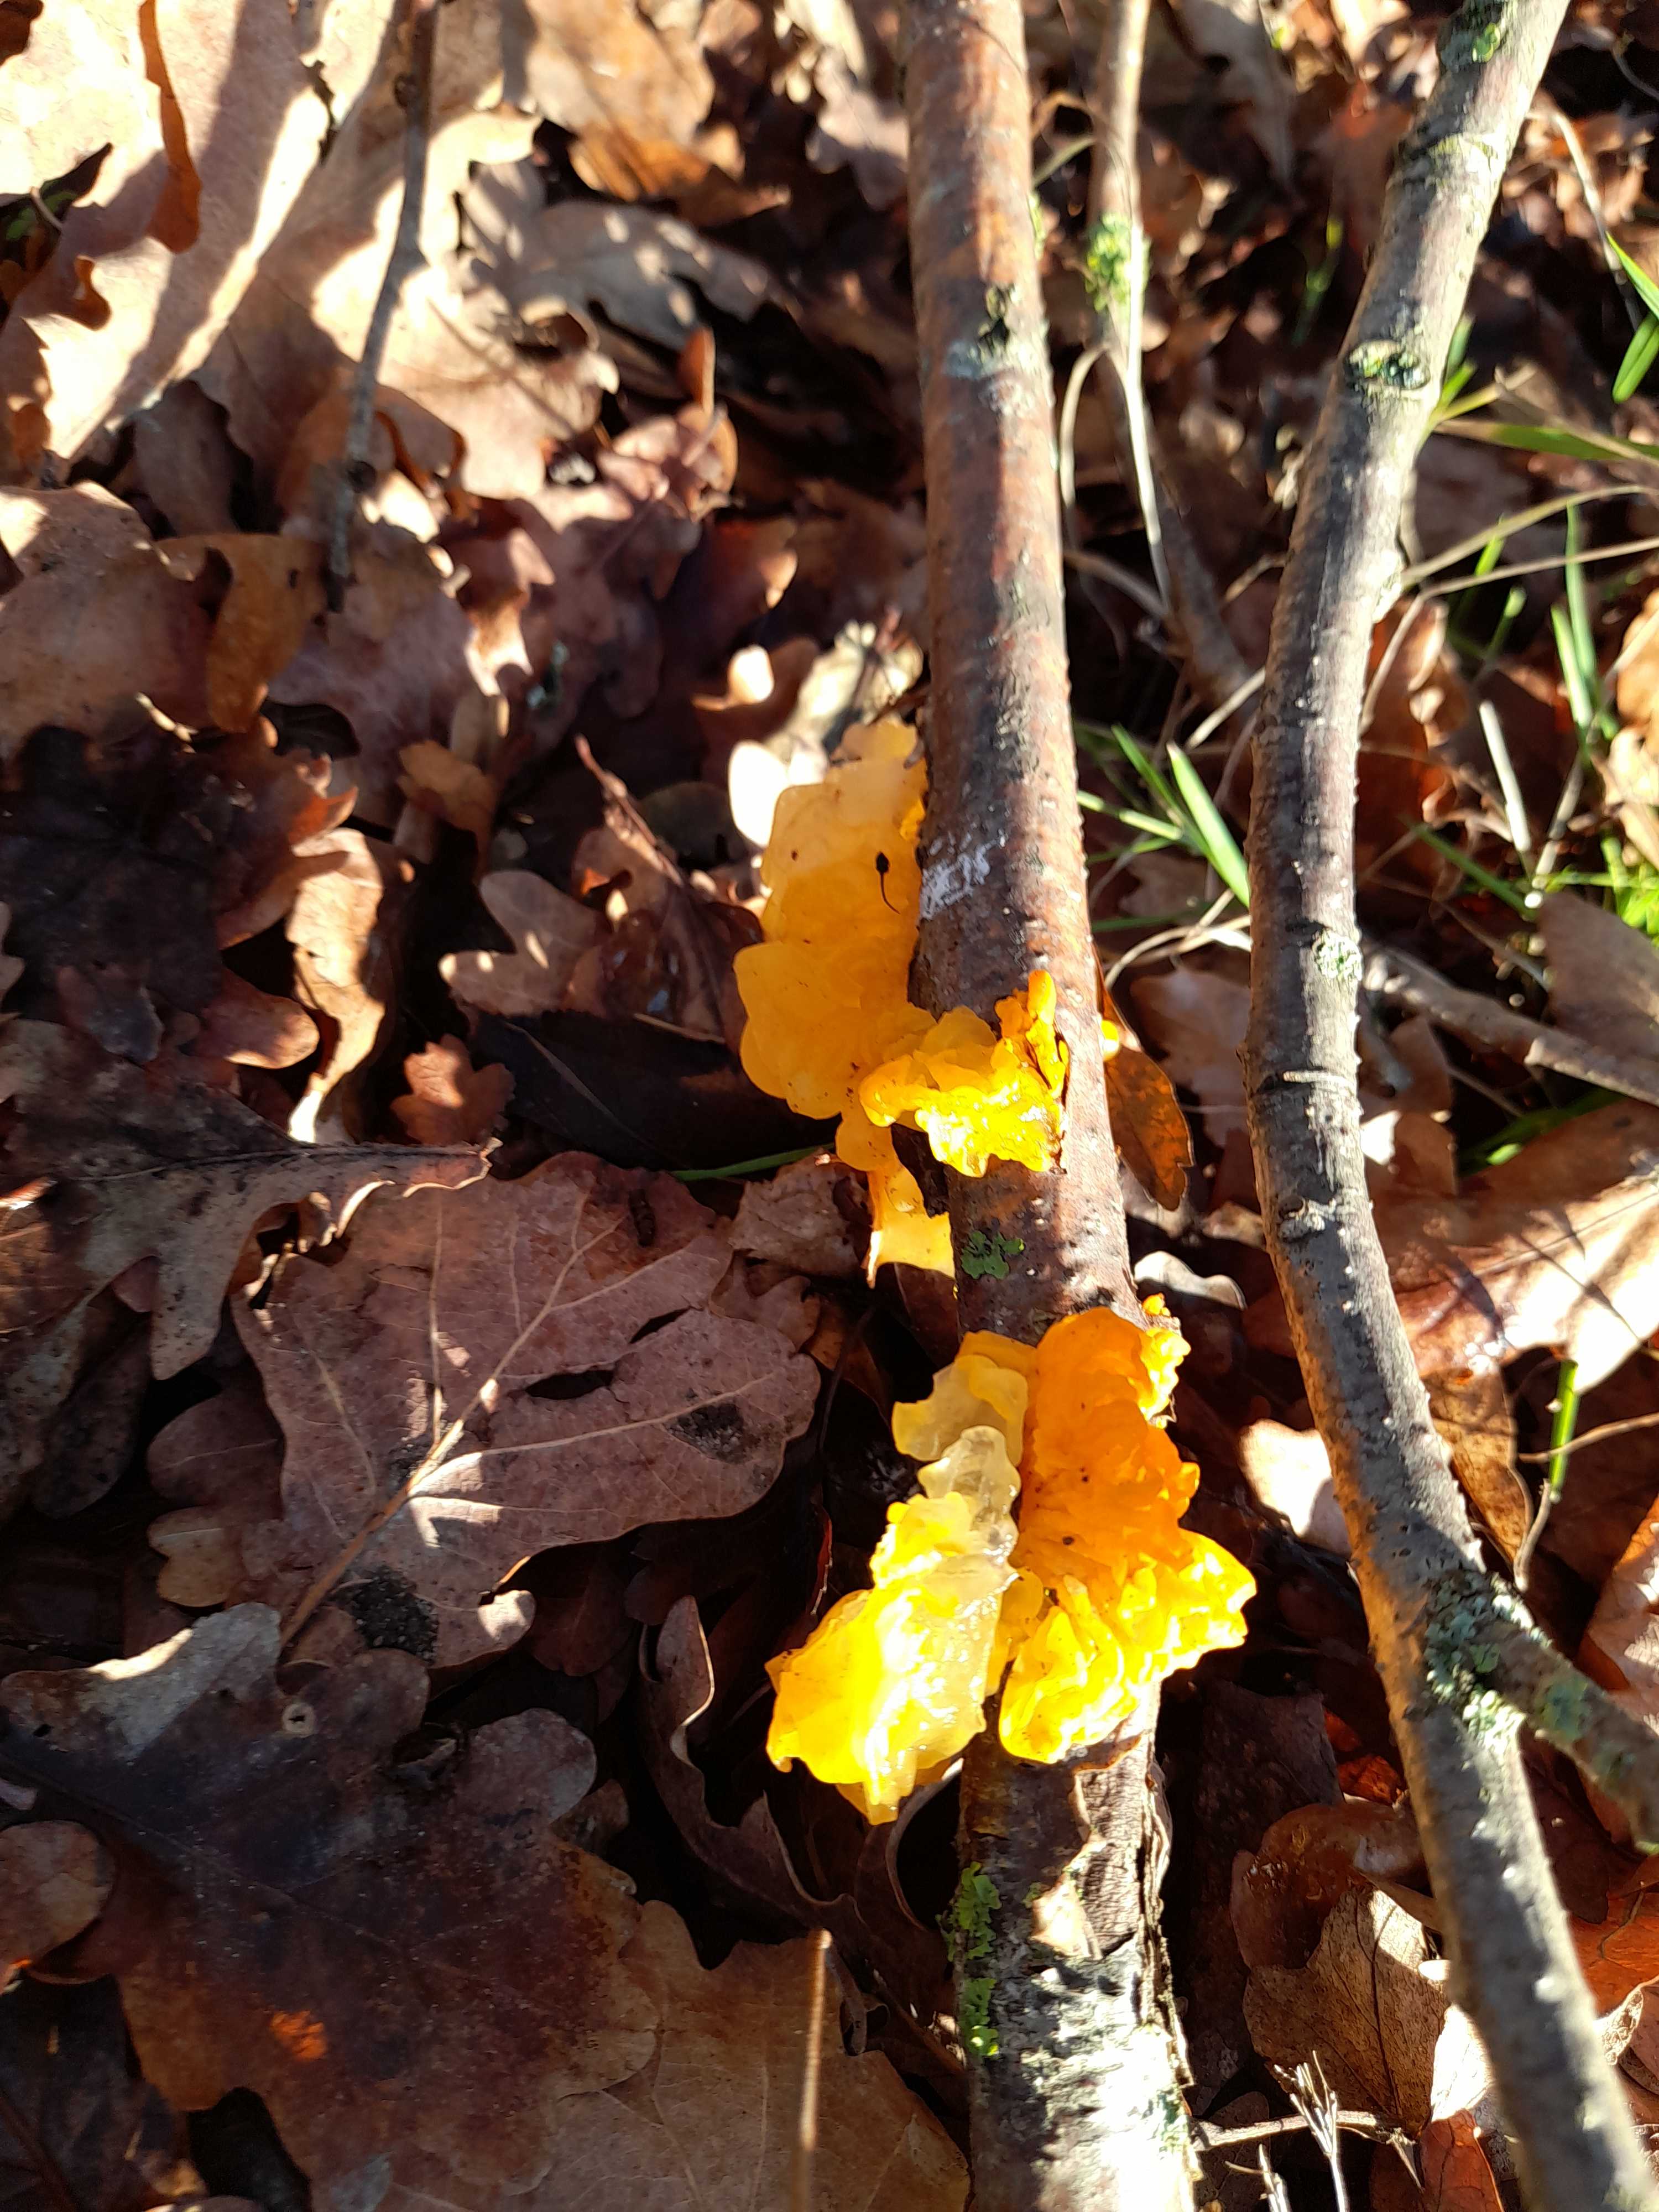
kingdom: Fungi
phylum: Basidiomycota
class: Tremellomycetes
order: Tremellales
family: Tremellaceae
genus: Tremella
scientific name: Tremella mesenterica
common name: gul bævresvamp
